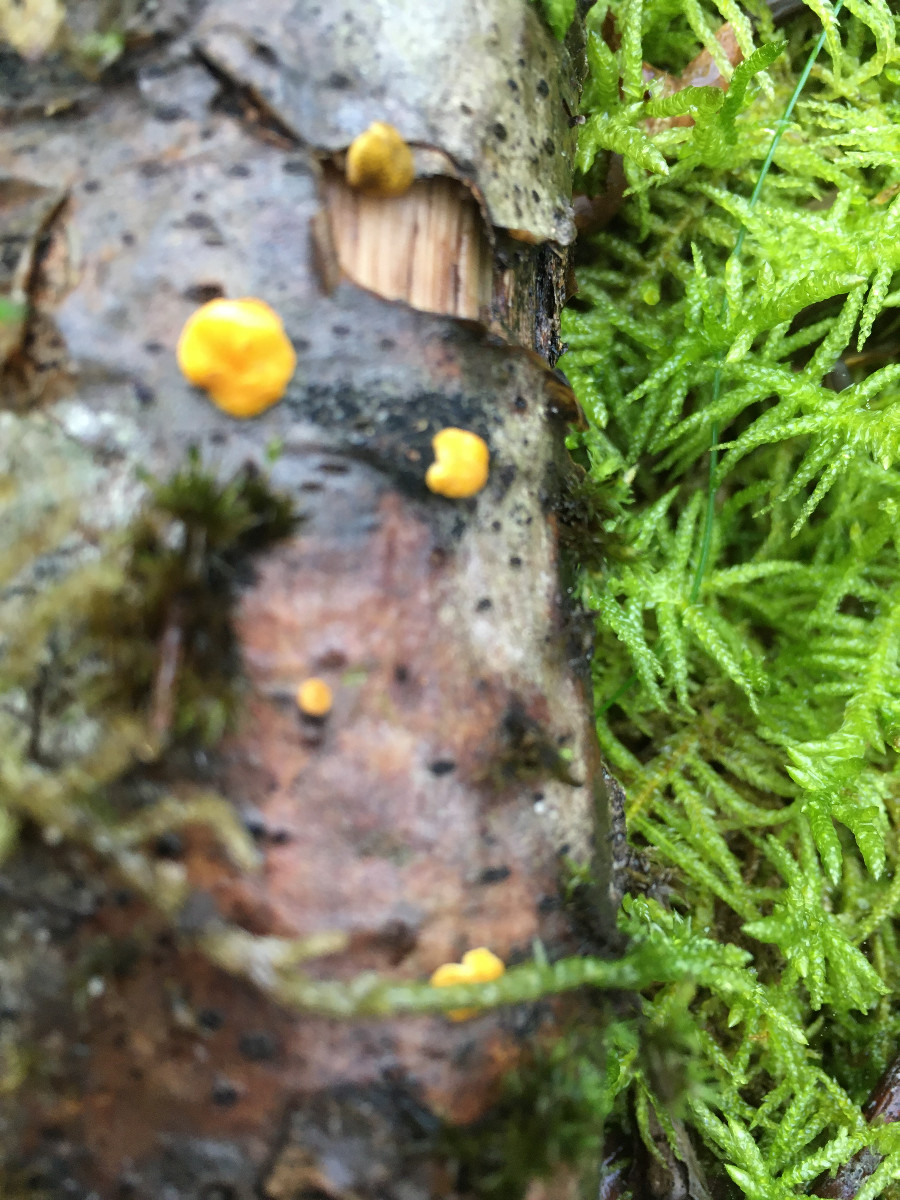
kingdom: Fungi
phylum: Ascomycota
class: Sordariomycetes
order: Hypocreales
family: Hypocreaceae
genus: Trichoderma
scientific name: Trichoderma aureoviride
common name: æggegul kødkerne
